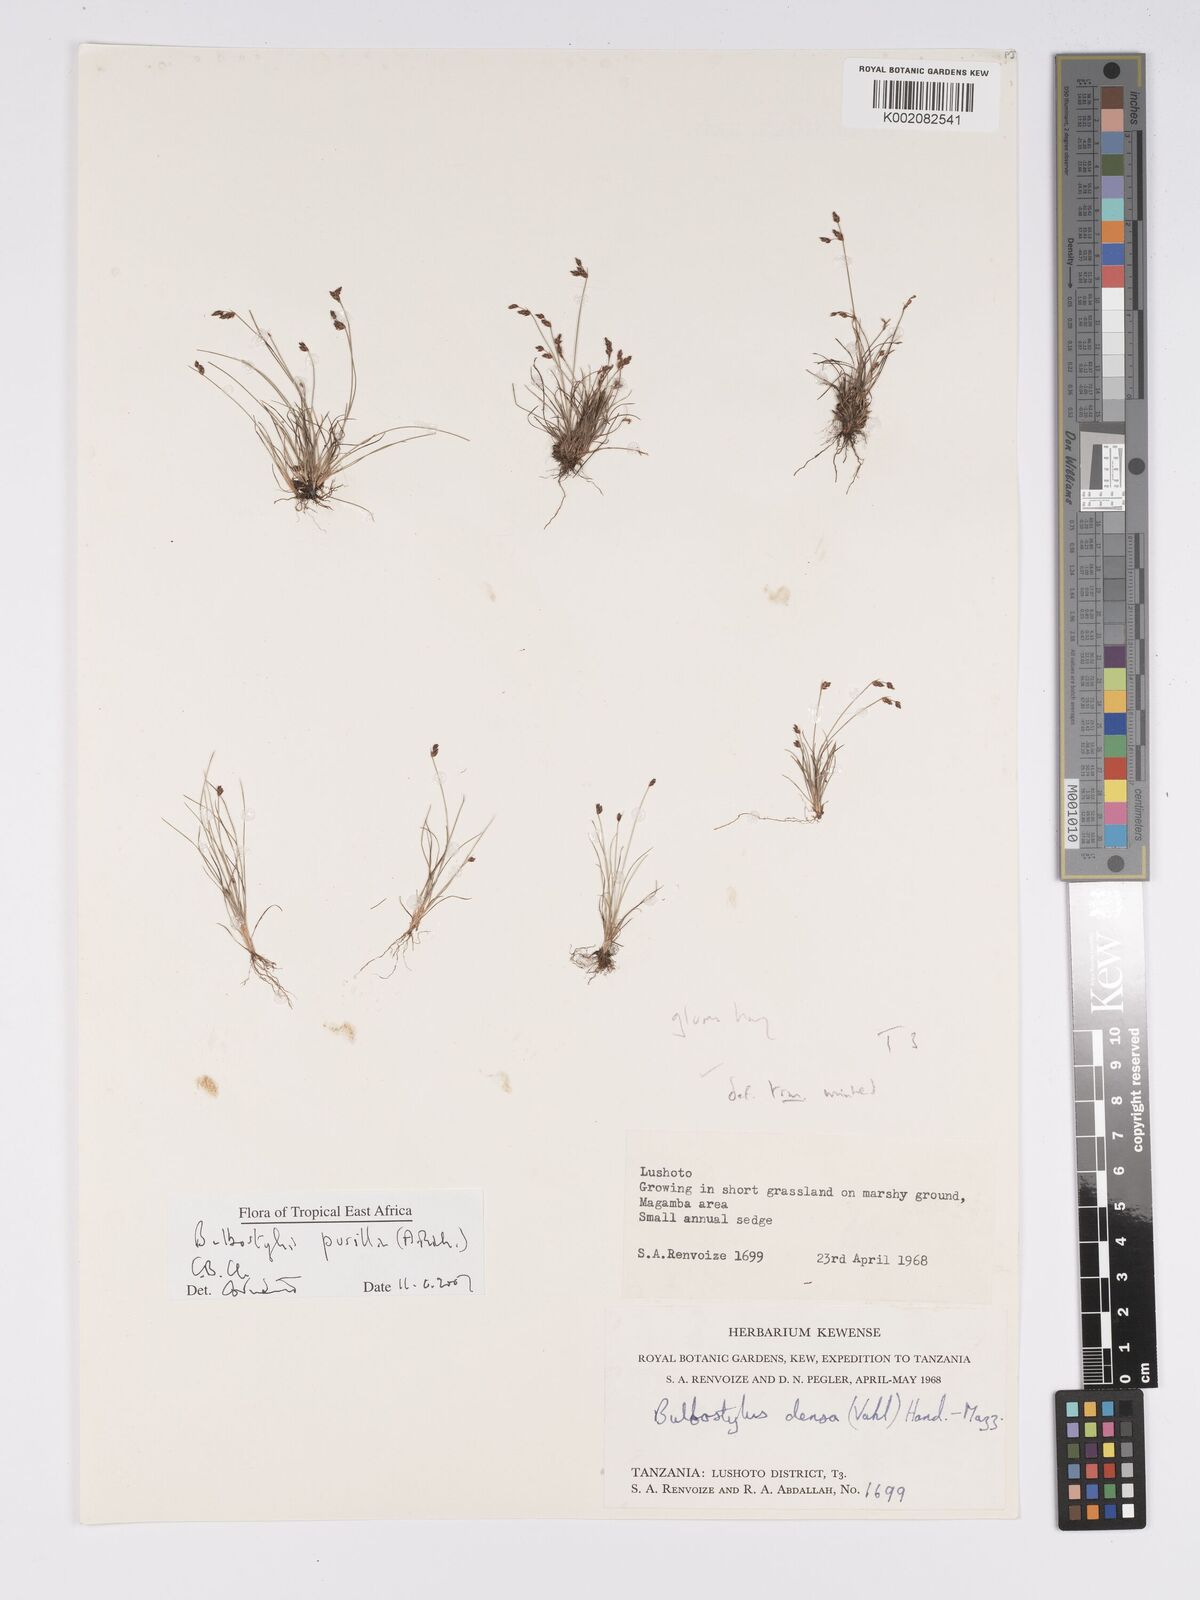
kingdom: Plantae
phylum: Tracheophyta
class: Liliopsida
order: Poales
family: Cyperaceae
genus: Bulbostylis
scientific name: Bulbostylis pusilla
